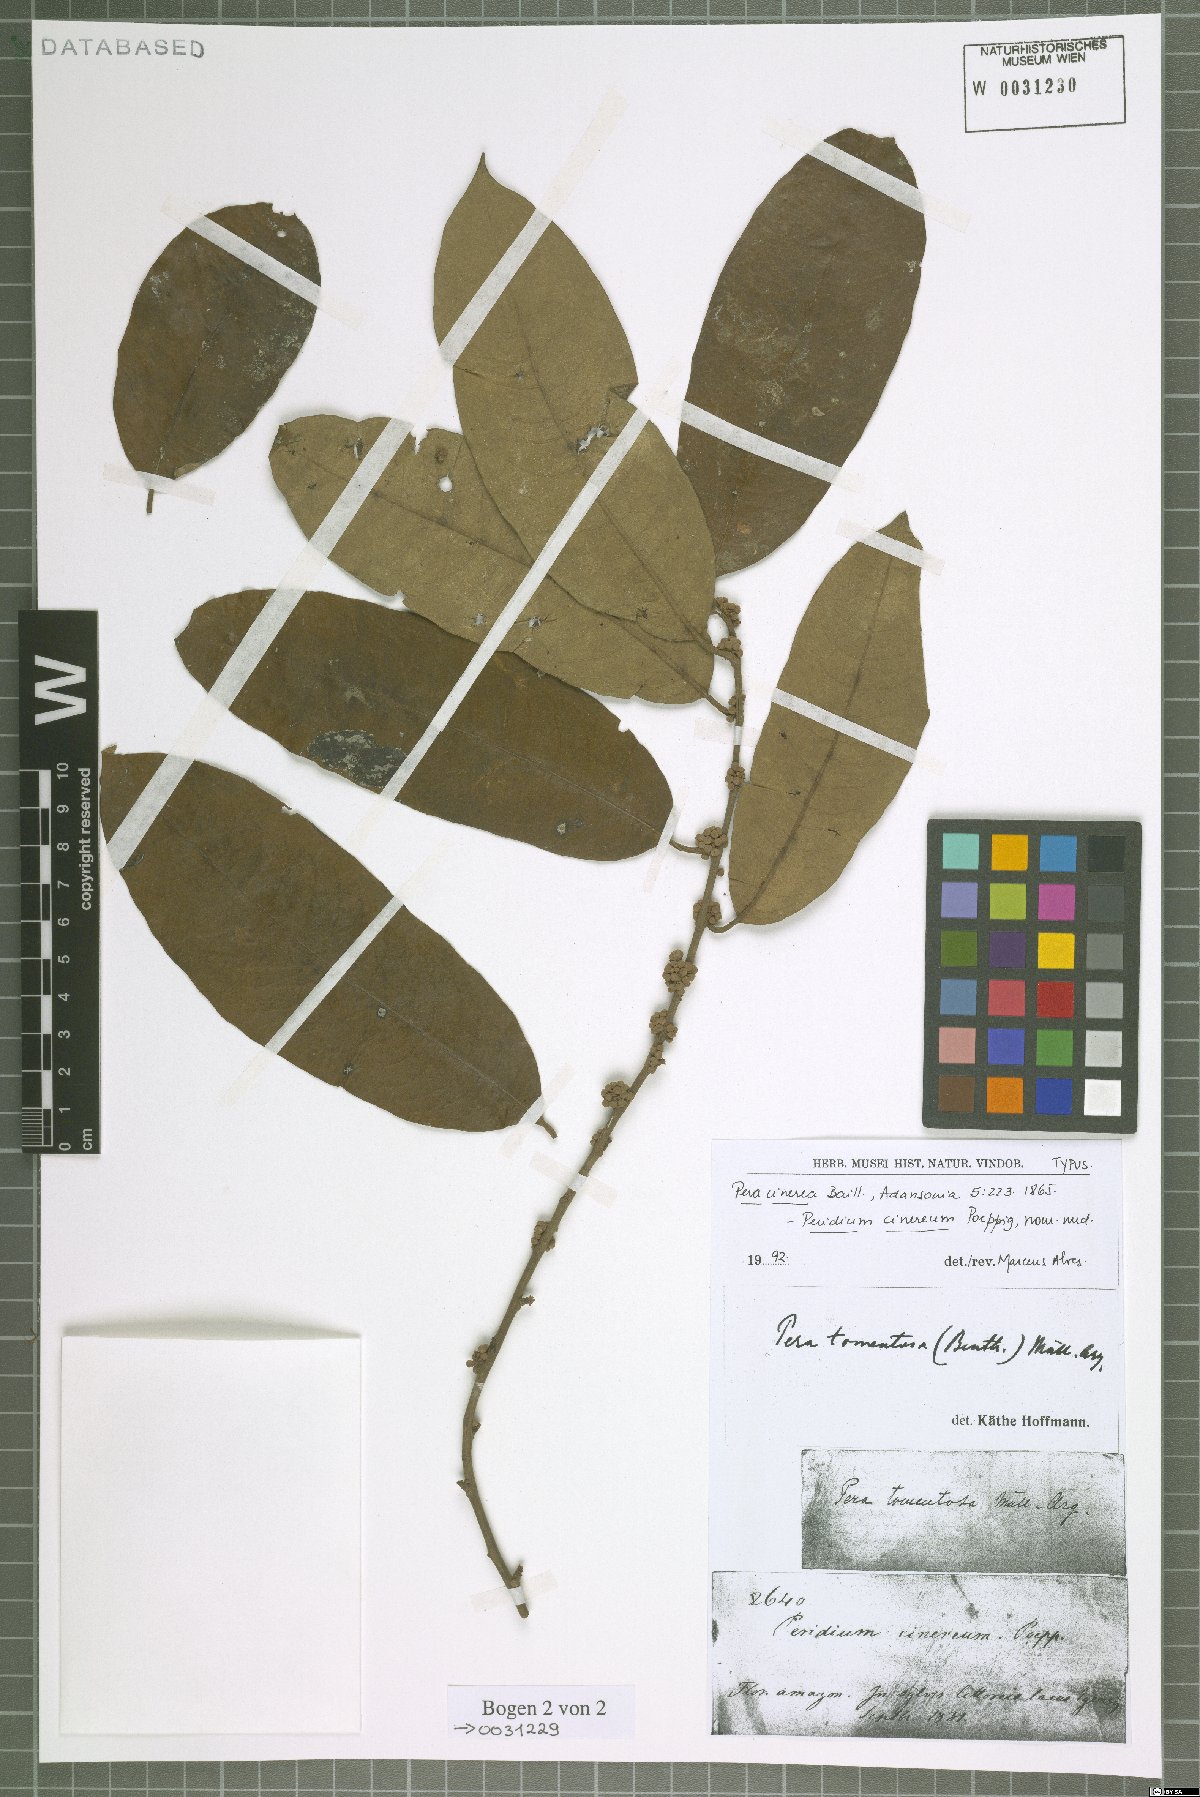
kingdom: Plantae
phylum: Tracheophyta
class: Magnoliopsida
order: Malpighiales
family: Peraceae
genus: Pera
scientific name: Pera tomentosa
